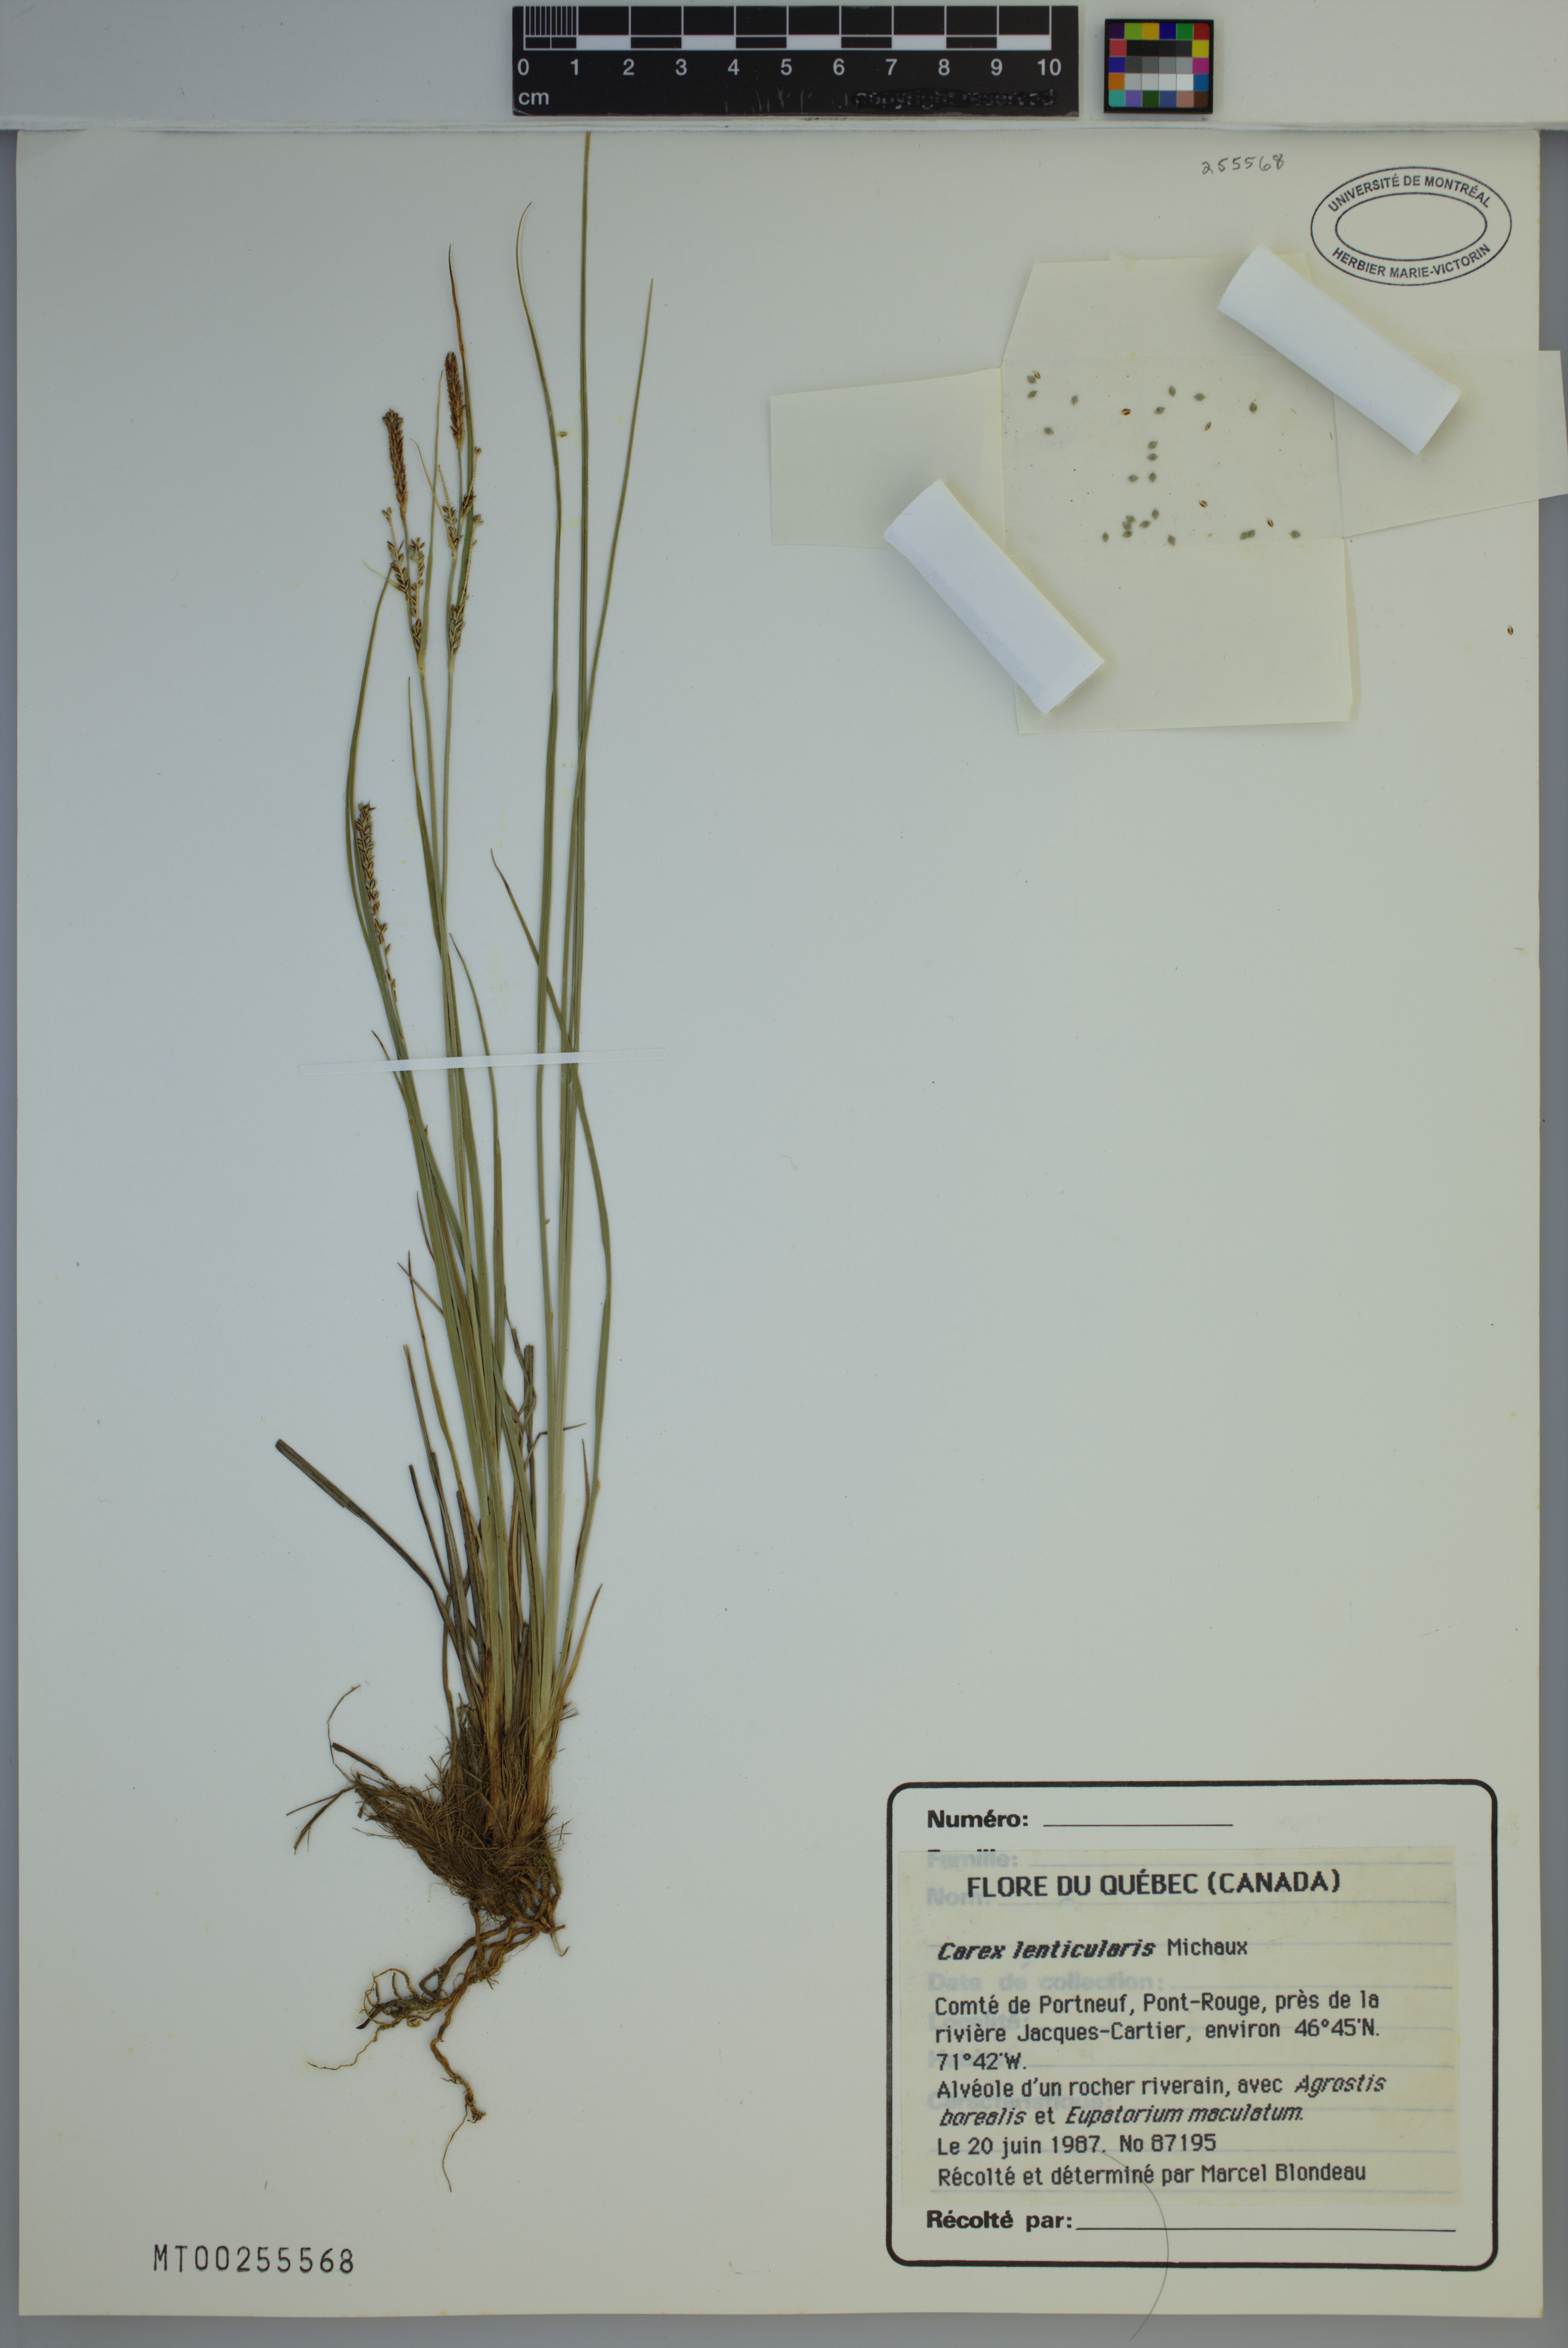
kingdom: Plantae
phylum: Tracheophyta
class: Liliopsida
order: Poales
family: Cyperaceae
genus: Carex
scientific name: Carex lenticularis
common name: Lakeshore sedge
